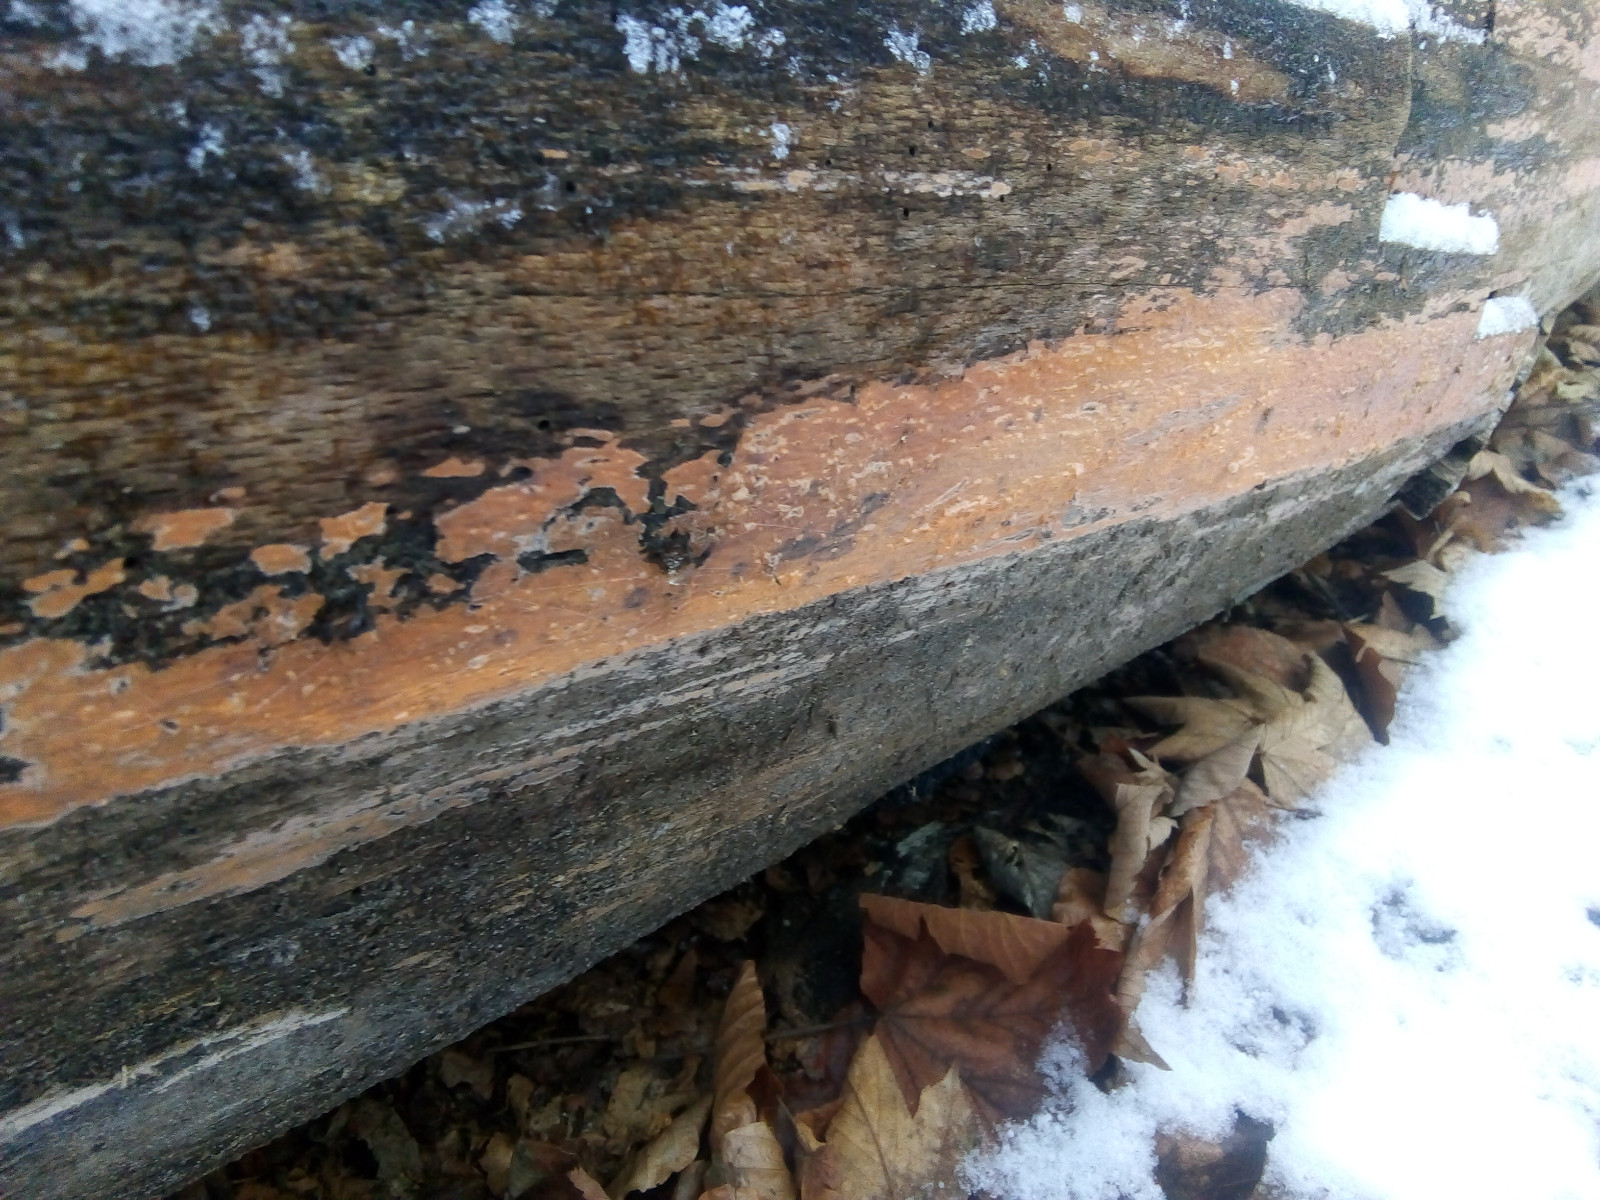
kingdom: Fungi
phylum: Basidiomycota
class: Agaricomycetes
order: Russulales
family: Peniophoraceae
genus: Peniophora
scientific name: Peniophora incarnata
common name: laksefarvet voksskind
